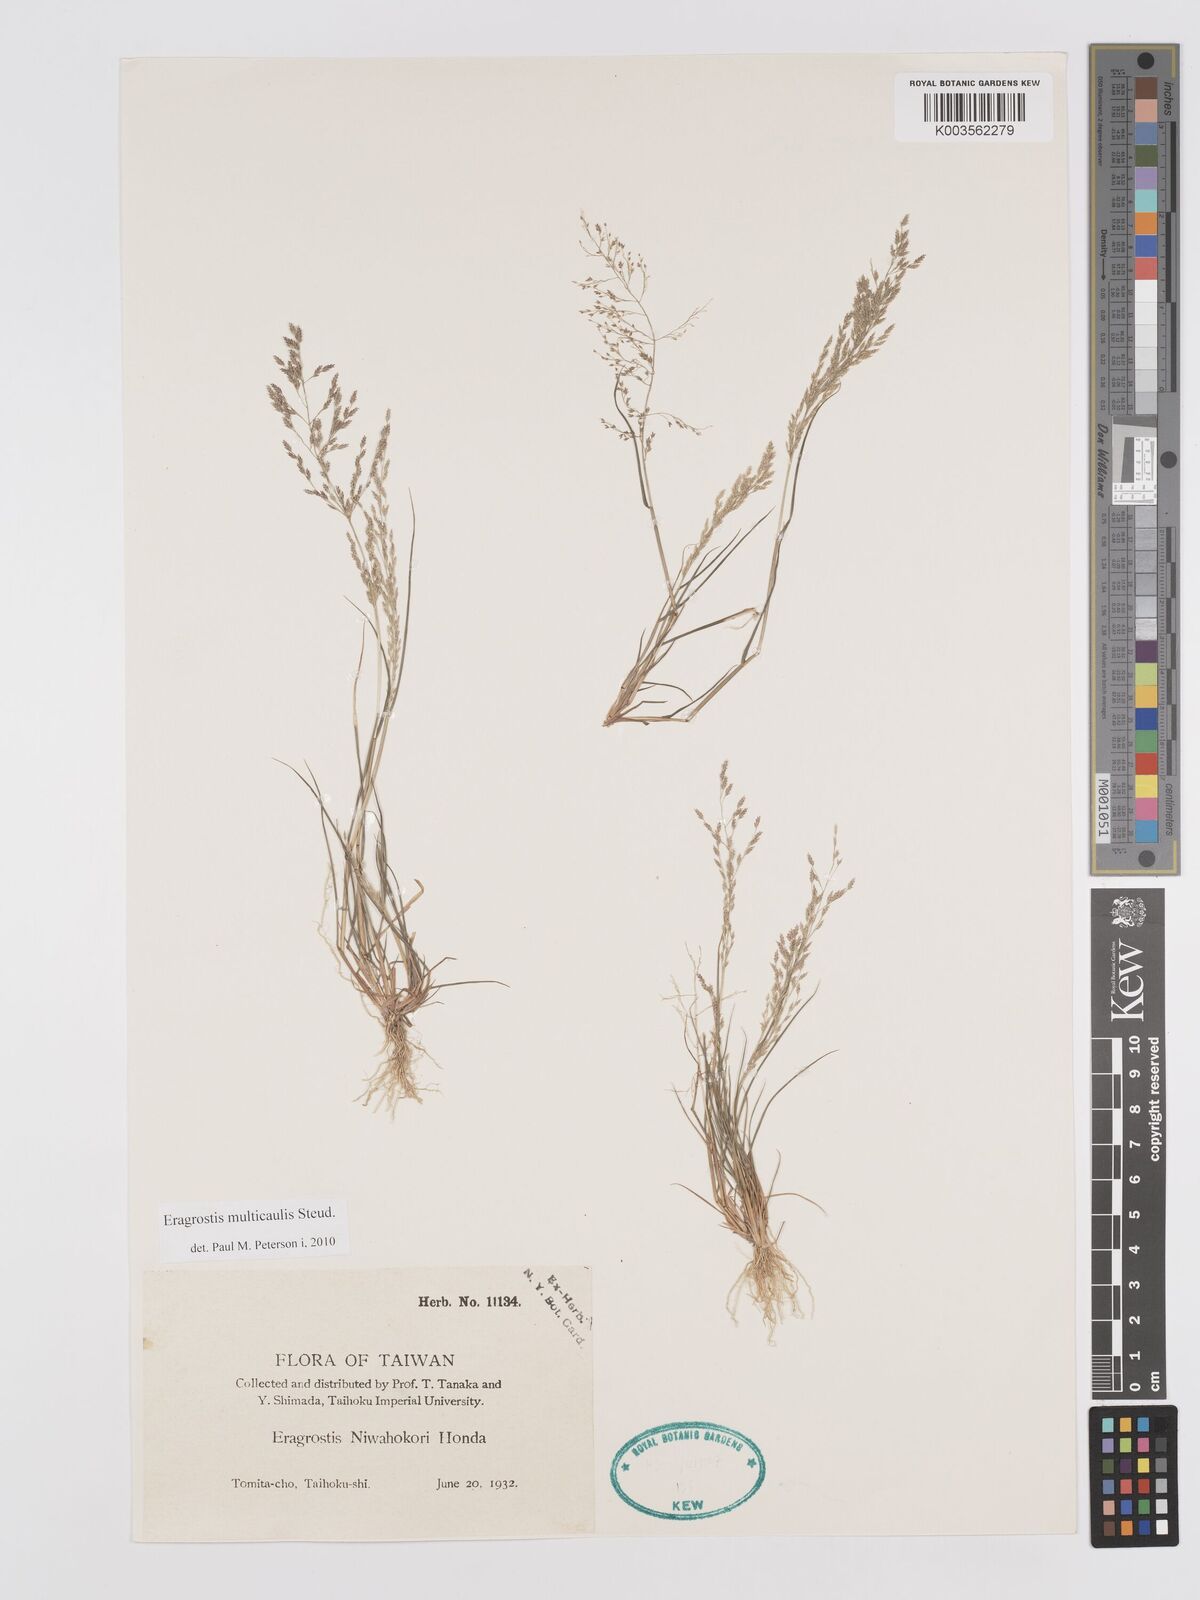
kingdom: Plantae
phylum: Tracheophyta
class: Liliopsida
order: Poales
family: Poaceae
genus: Eragrostis
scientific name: Eragrostis pilosa
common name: Indian lovegrass
